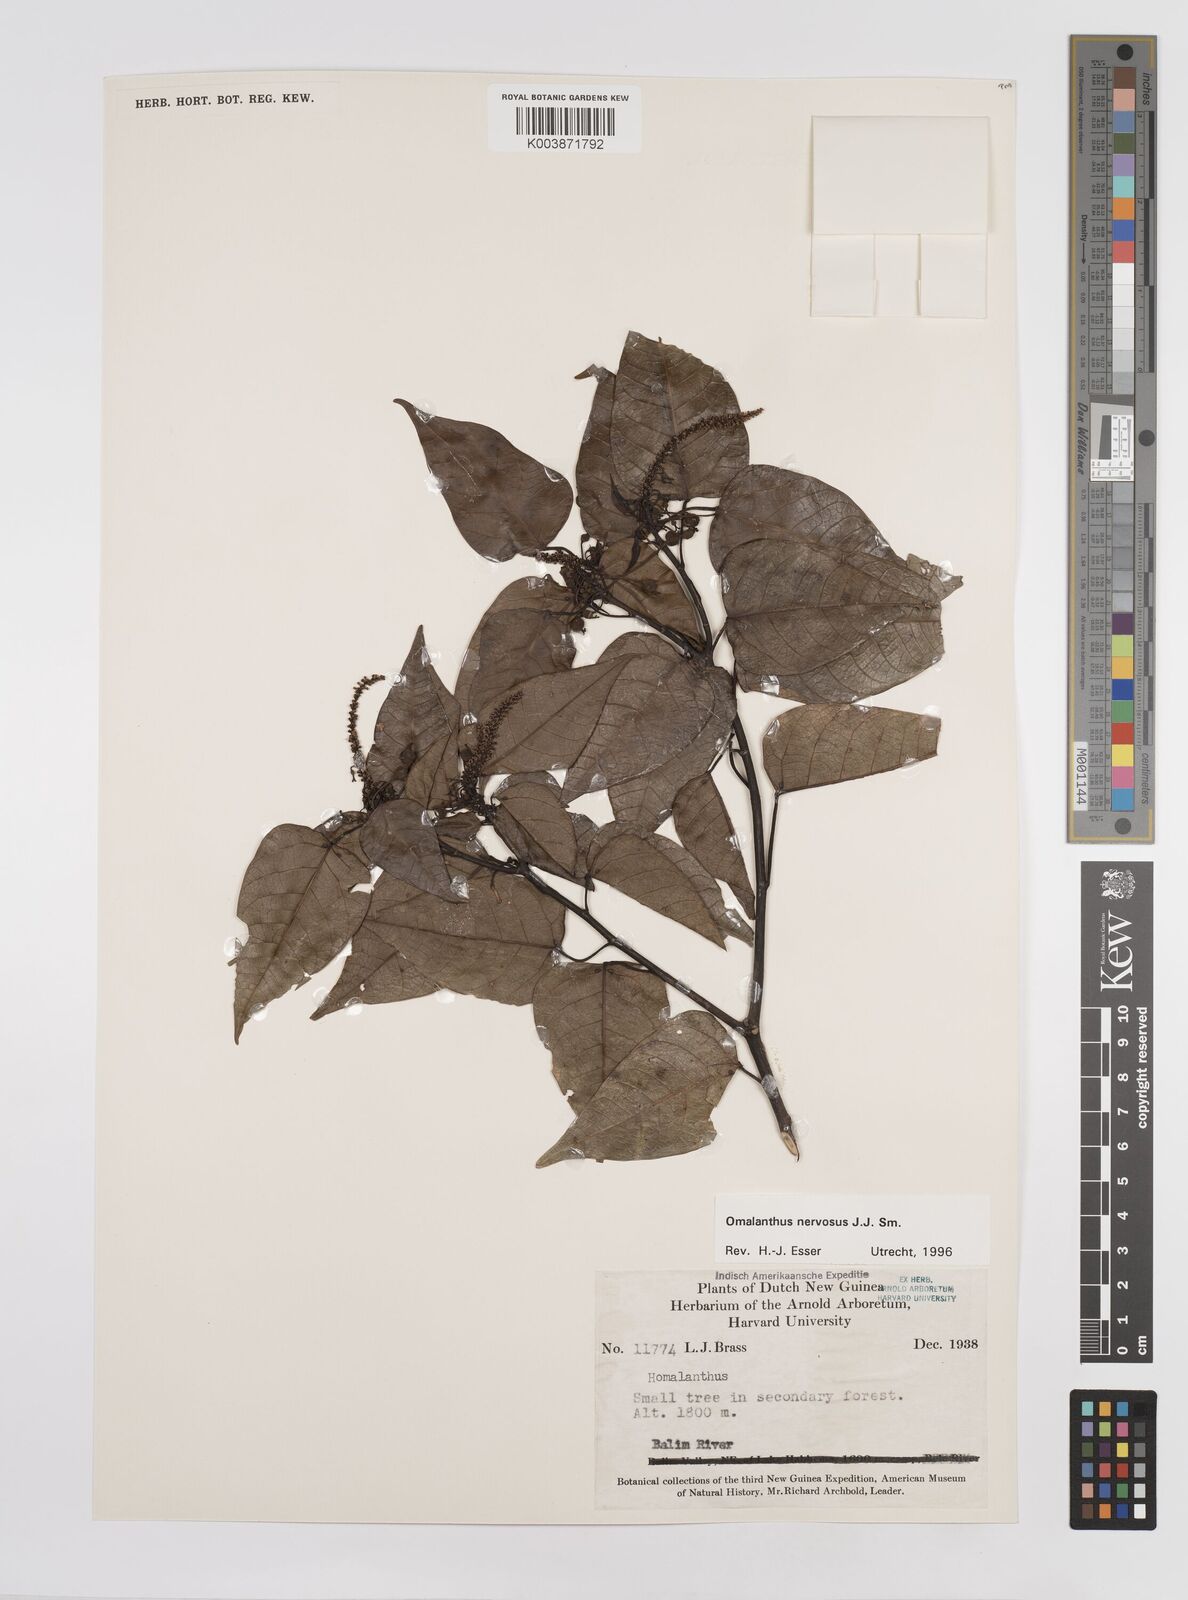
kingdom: Plantae
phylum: Tracheophyta
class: Magnoliopsida
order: Malpighiales
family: Euphorbiaceae
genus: Homalanthus
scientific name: Homalanthus nervosus
